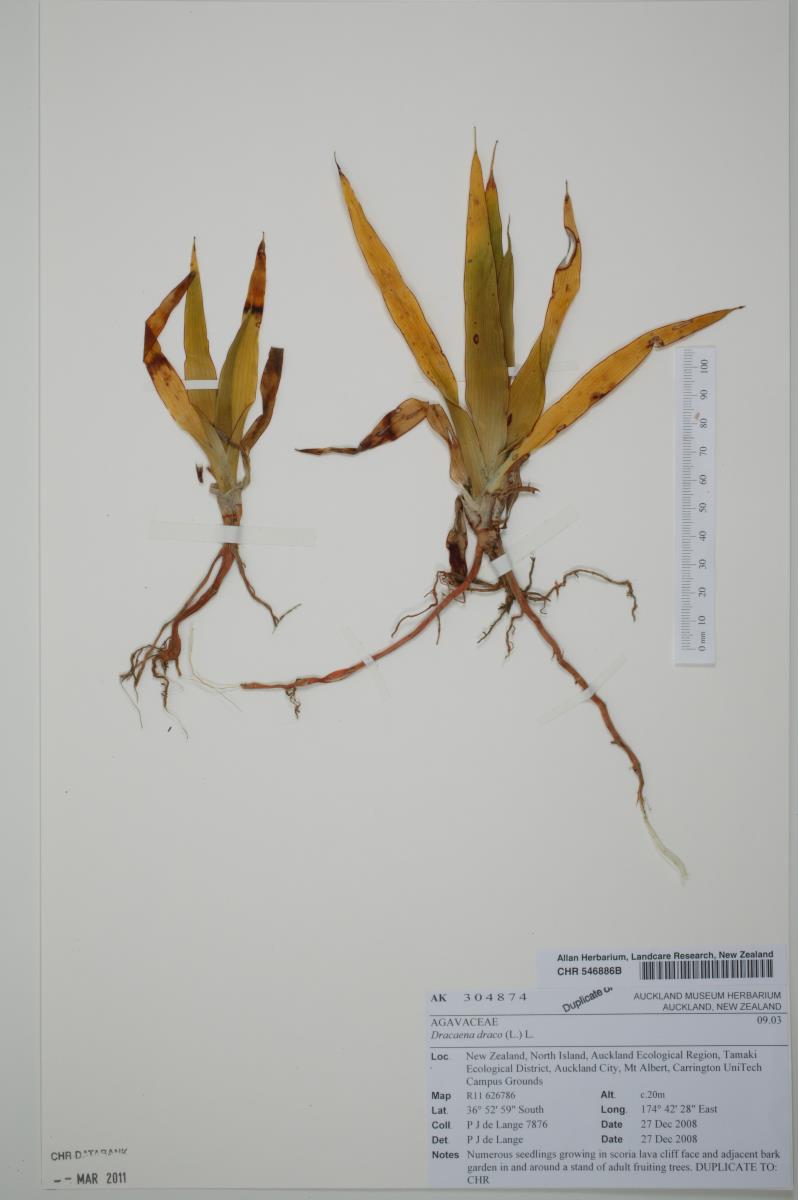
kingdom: Plantae
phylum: Tracheophyta
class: Liliopsida
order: Asparagales
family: Asparagaceae
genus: Dracaena
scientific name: Dracaena draco
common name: Canary island dragon tree
